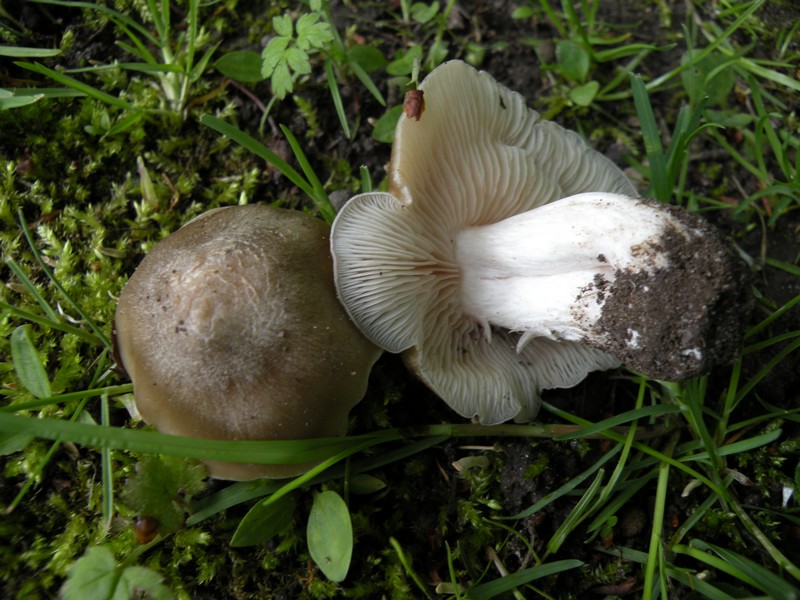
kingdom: Fungi
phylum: Basidiomycota
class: Agaricomycetes
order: Agaricales
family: Entolomataceae
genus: Entoloma
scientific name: Entoloma clypeatum
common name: flammet rødblad
